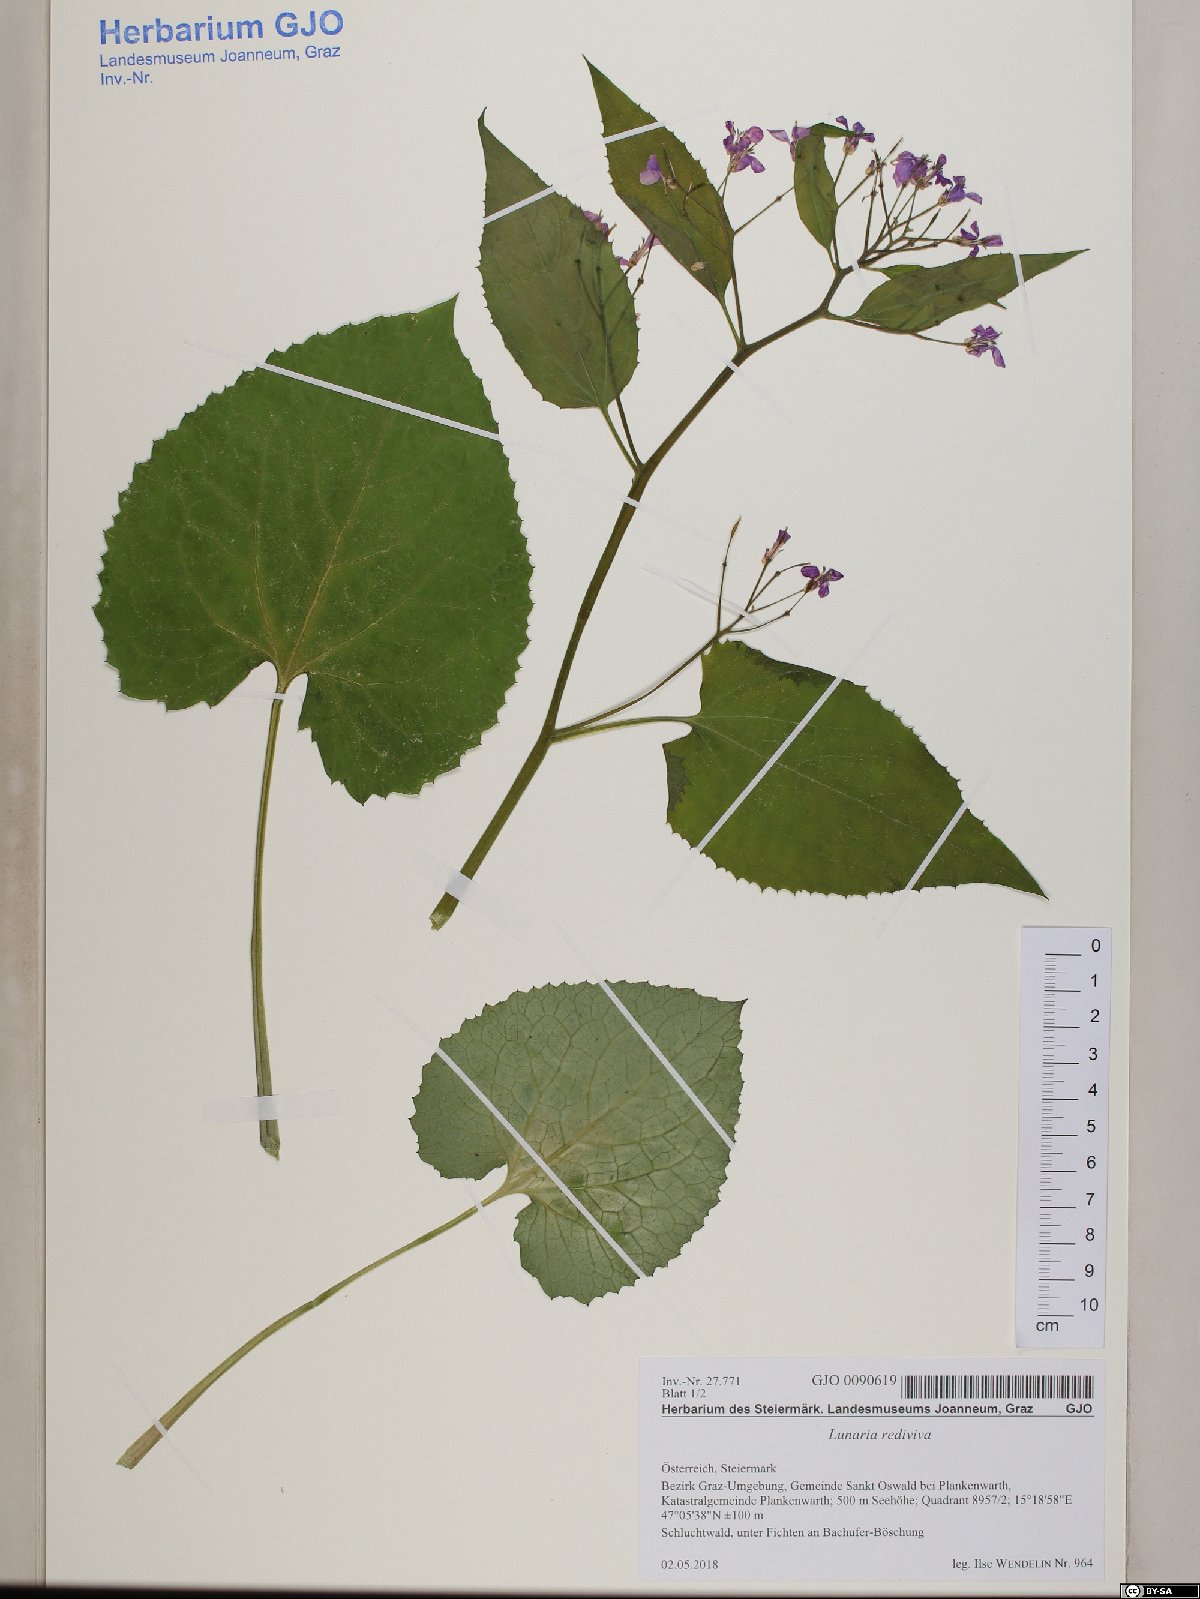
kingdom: Plantae
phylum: Tracheophyta
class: Magnoliopsida
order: Brassicales
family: Brassicaceae
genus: Lunaria
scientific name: Lunaria rediviva
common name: Perennial honesty
